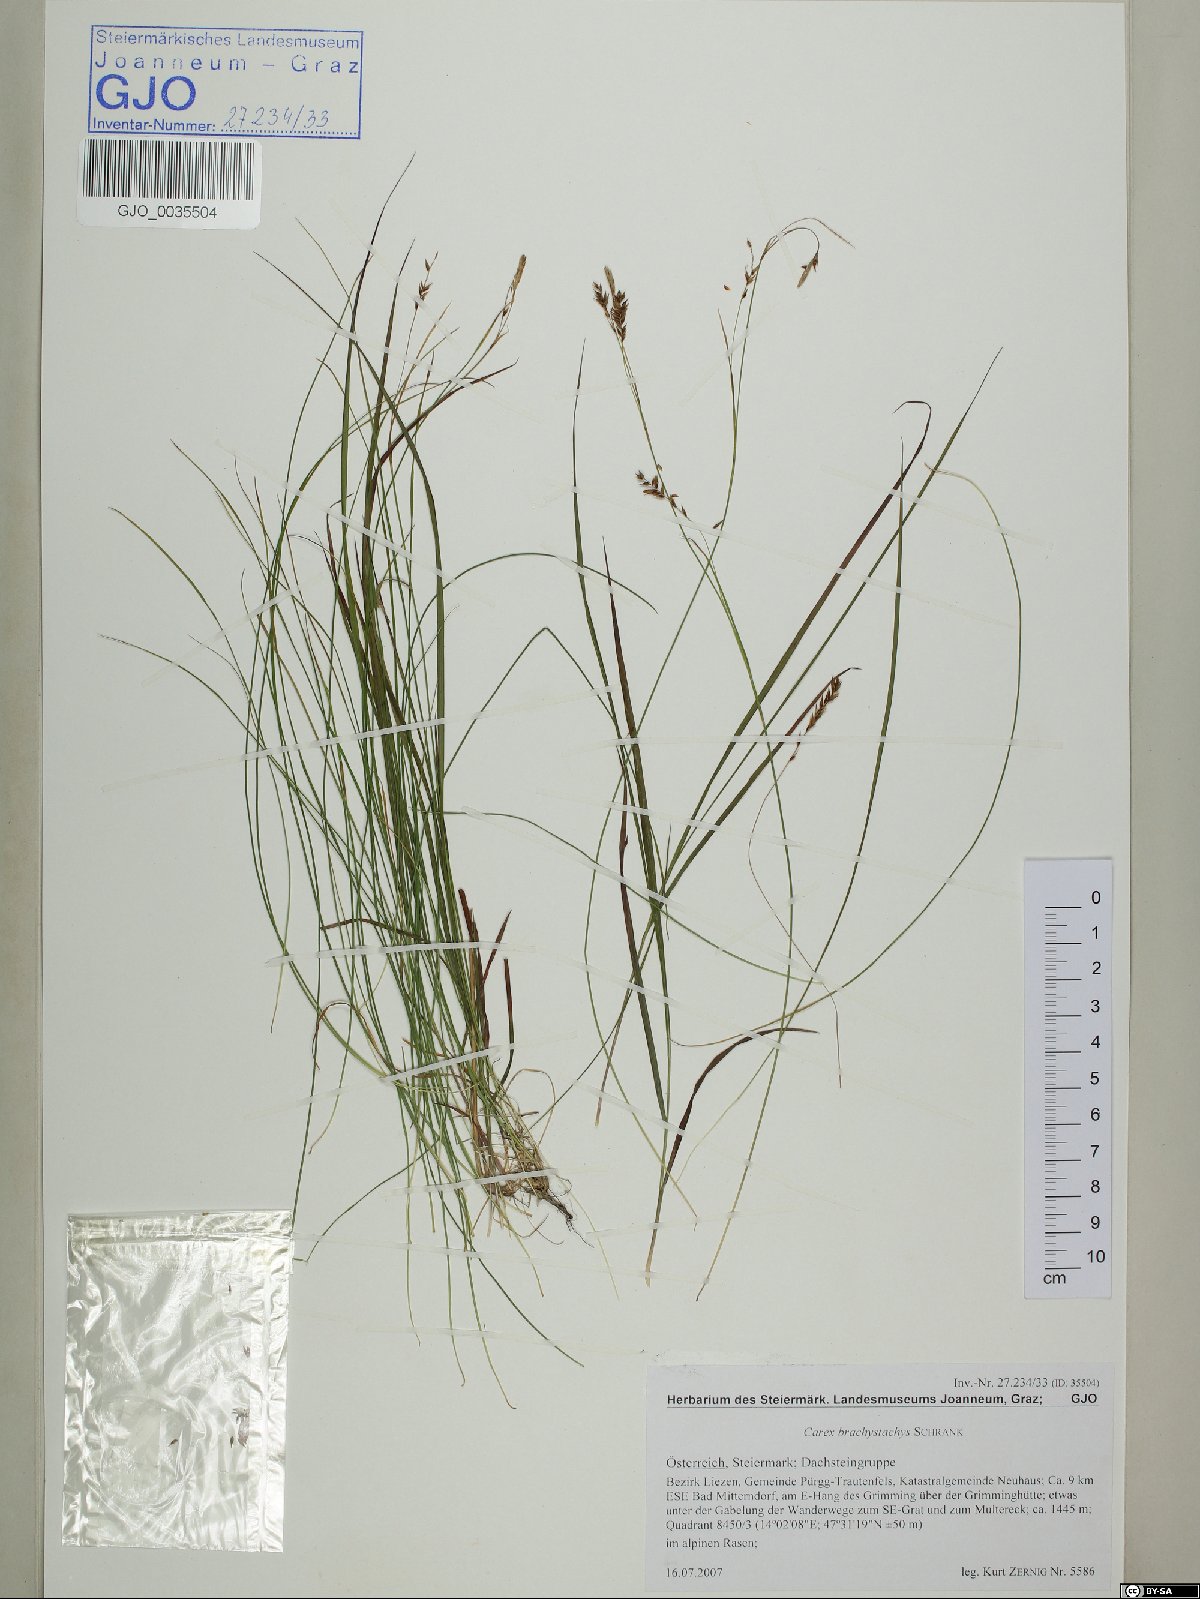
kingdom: Plantae
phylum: Tracheophyta
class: Liliopsida
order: Poales
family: Cyperaceae
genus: Carex
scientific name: Carex brachystachys
